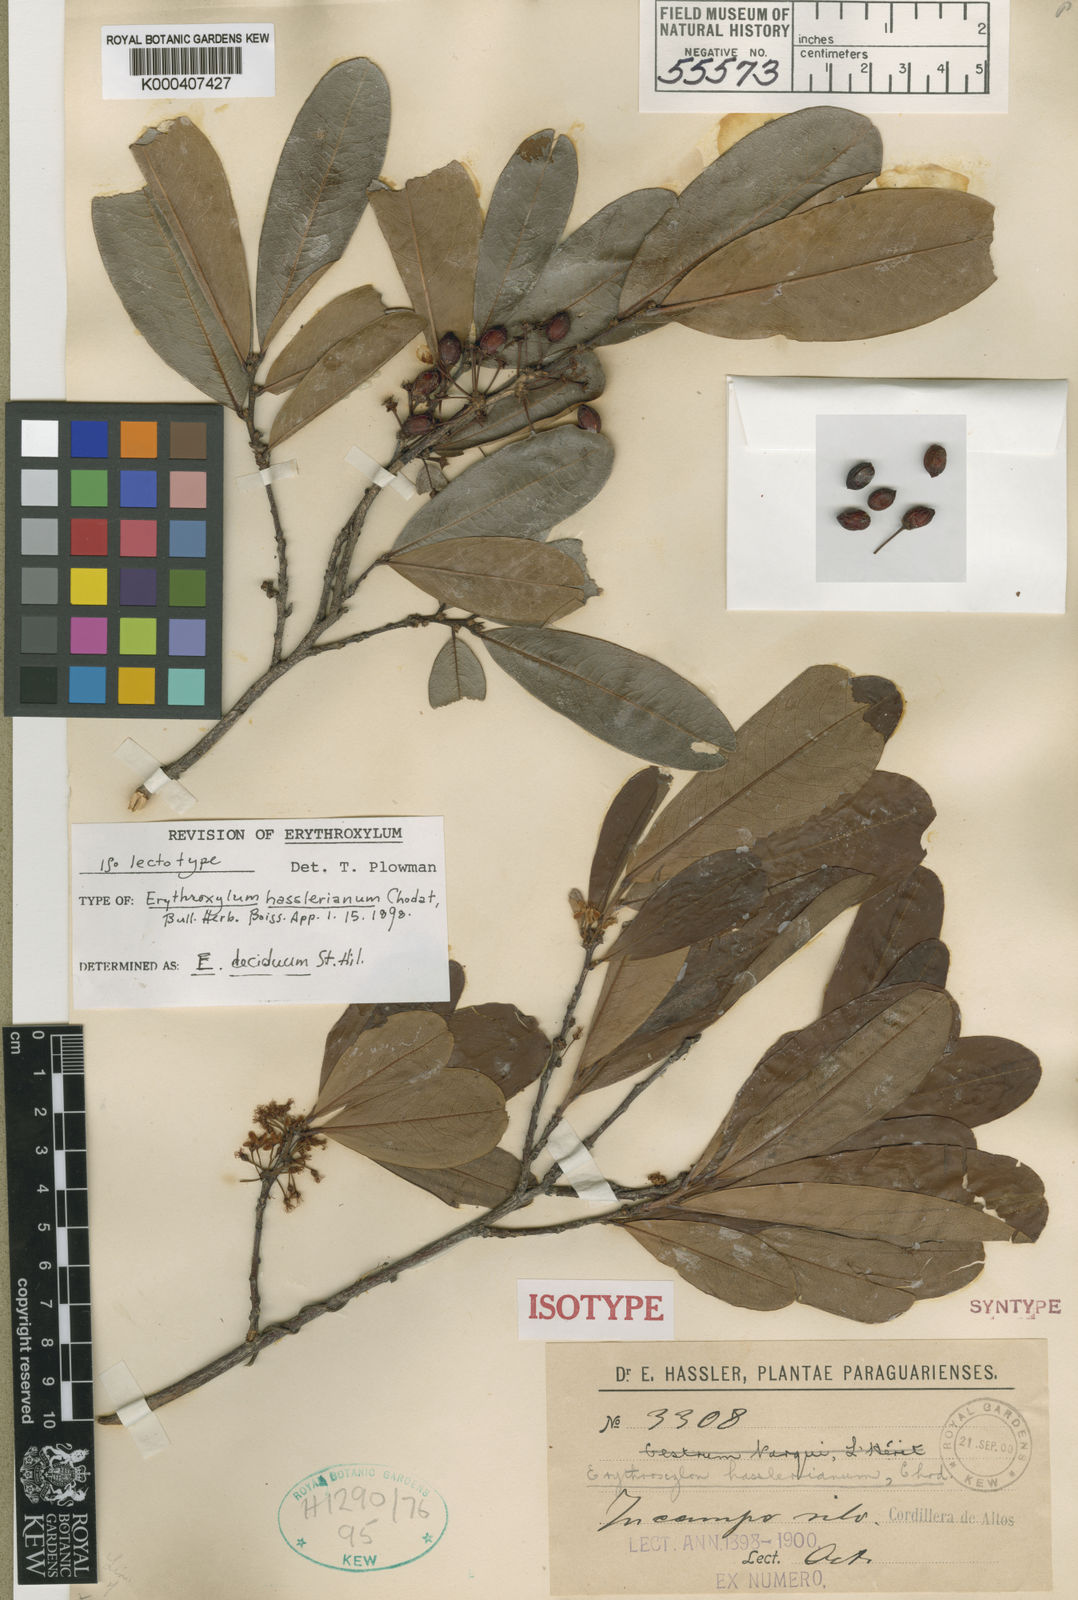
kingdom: Plantae
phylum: Tracheophyta
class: Magnoliopsida
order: Malpighiales
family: Erythroxylaceae
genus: Erythroxylum
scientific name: Erythroxylum deciduum
